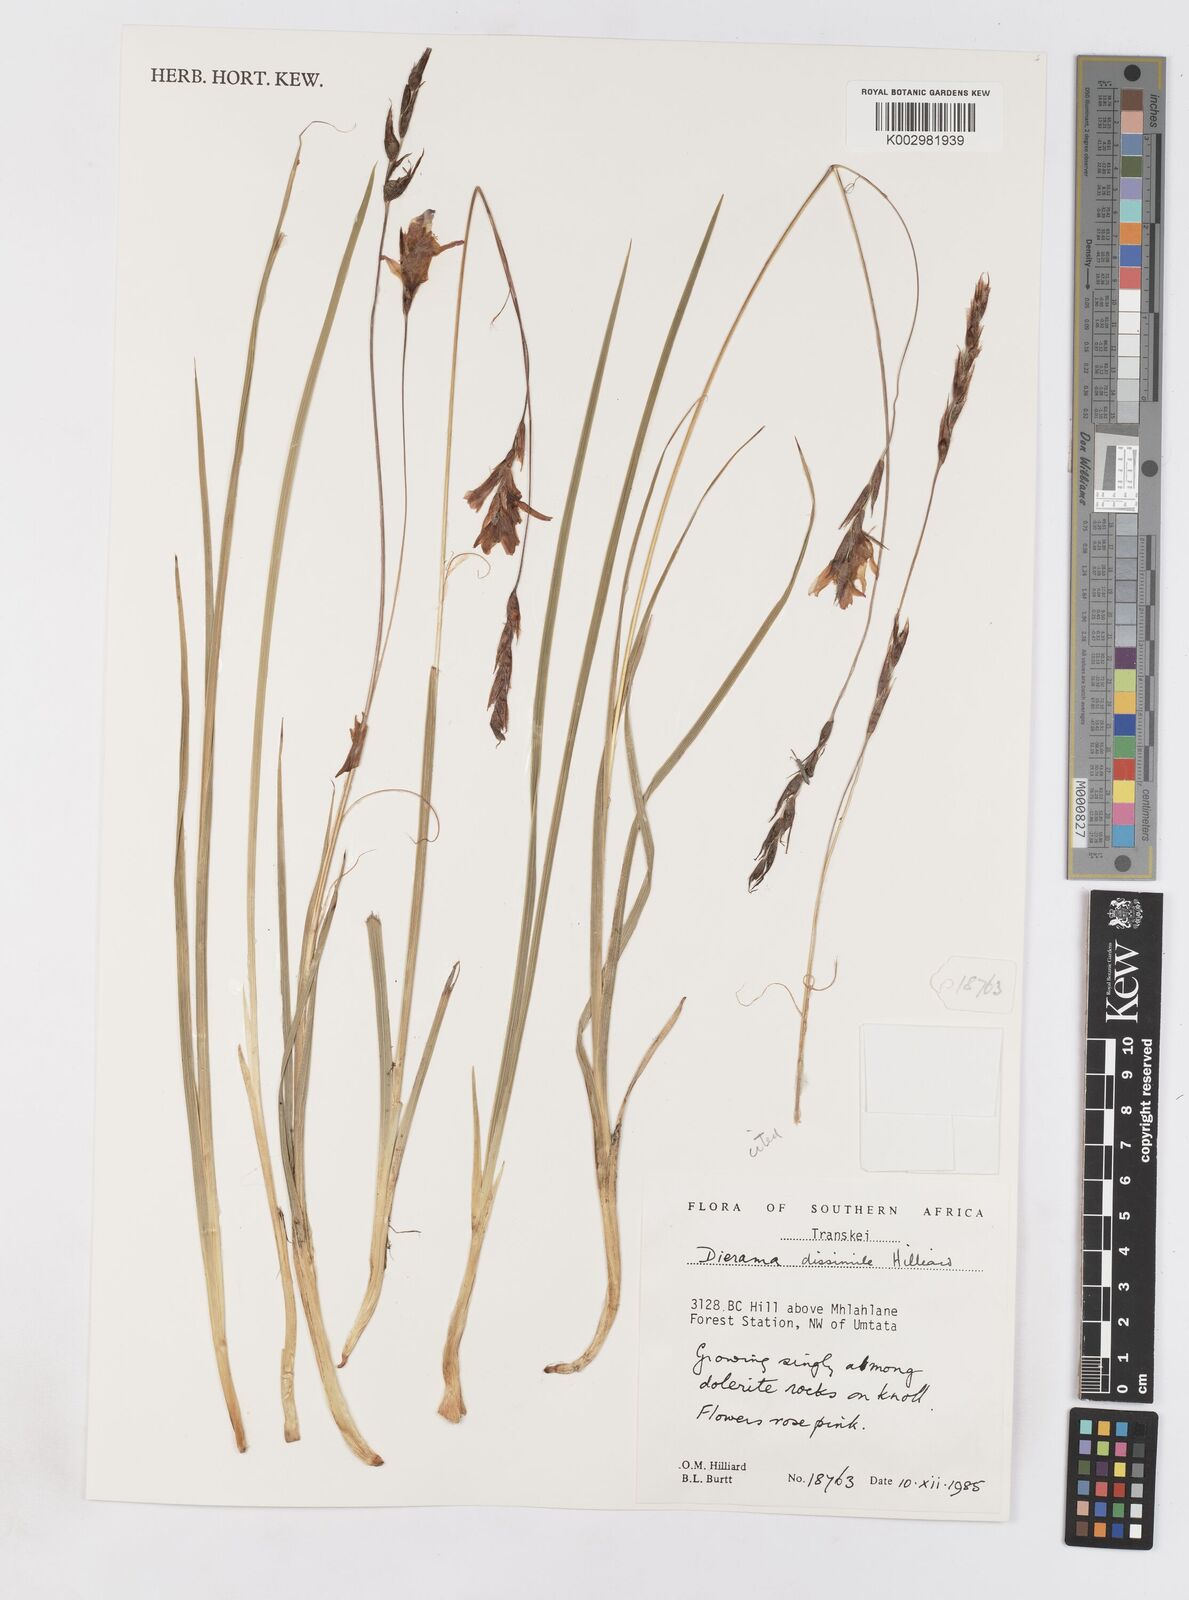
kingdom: Plantae
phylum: Tracheophyta
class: Liliopsida
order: Asparagales
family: Iridaceae
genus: Dierama
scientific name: Dierama dissimile
